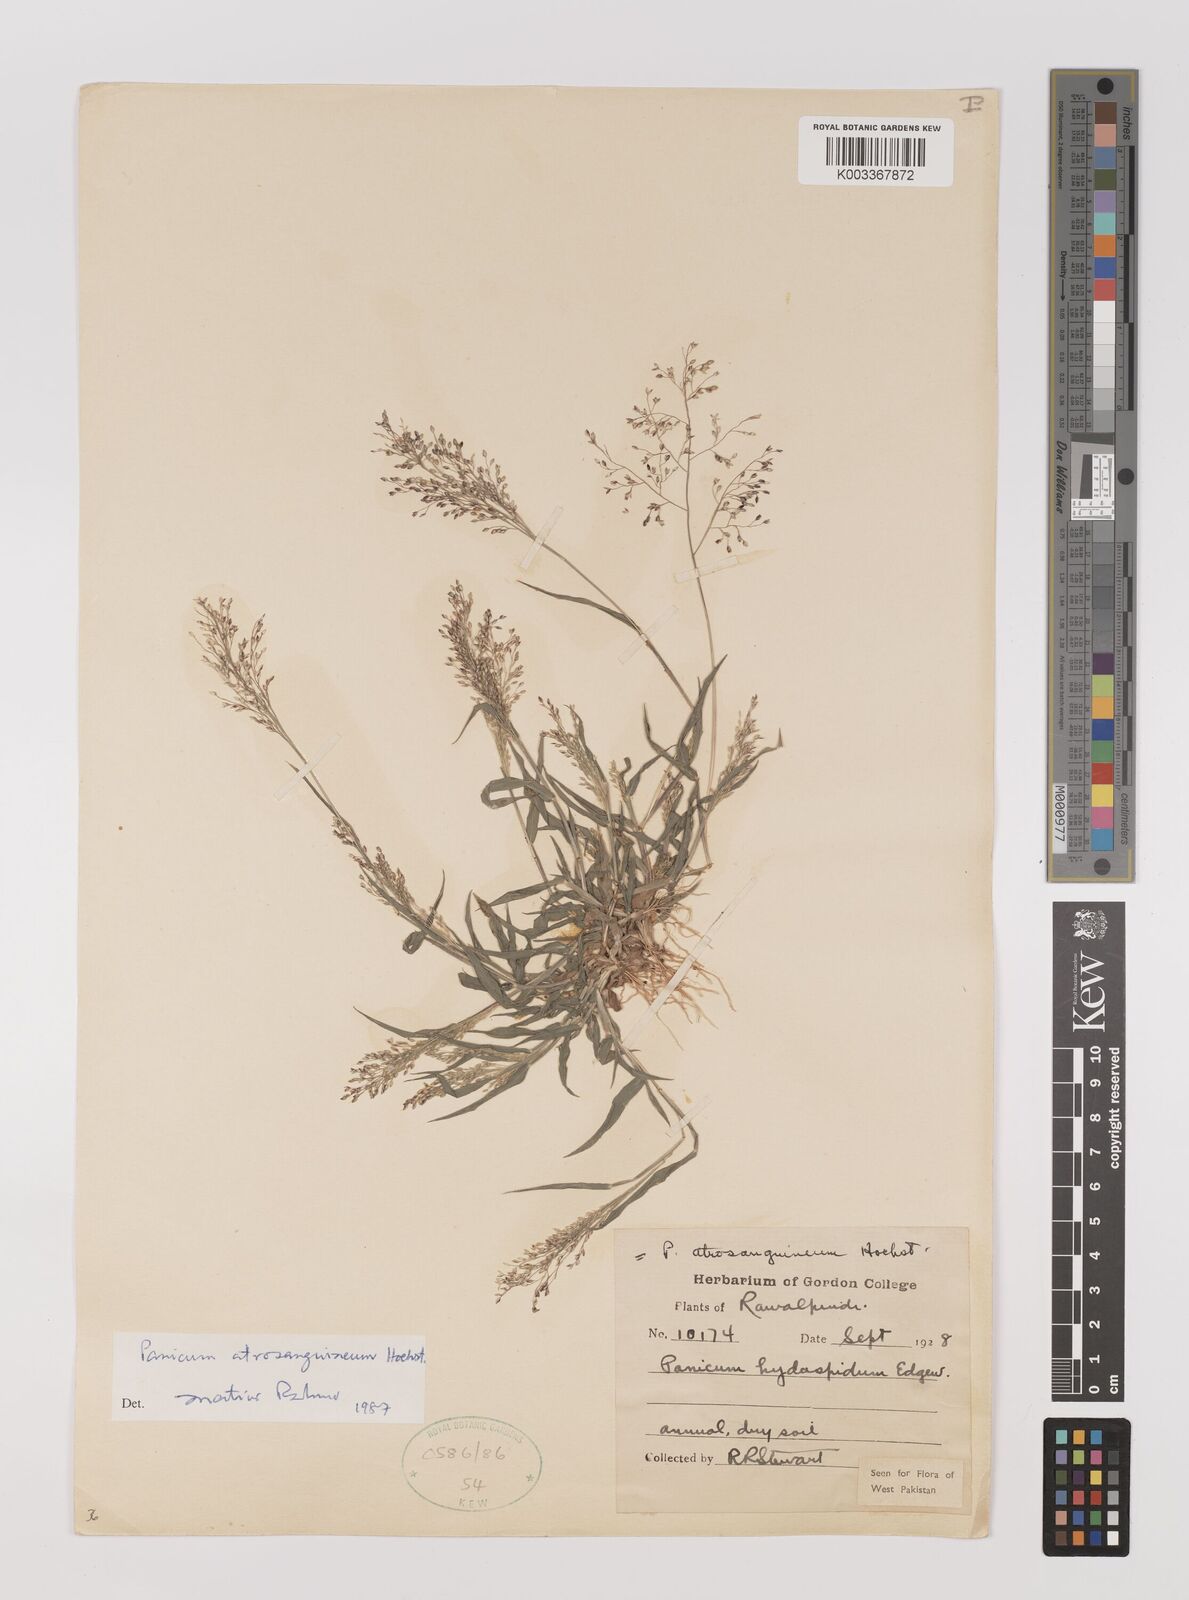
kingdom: Plantae
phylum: Tracheophyta
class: Liliopsida
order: Poales
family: Poaceae
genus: Panicum
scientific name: Panicum atrosanguineum
